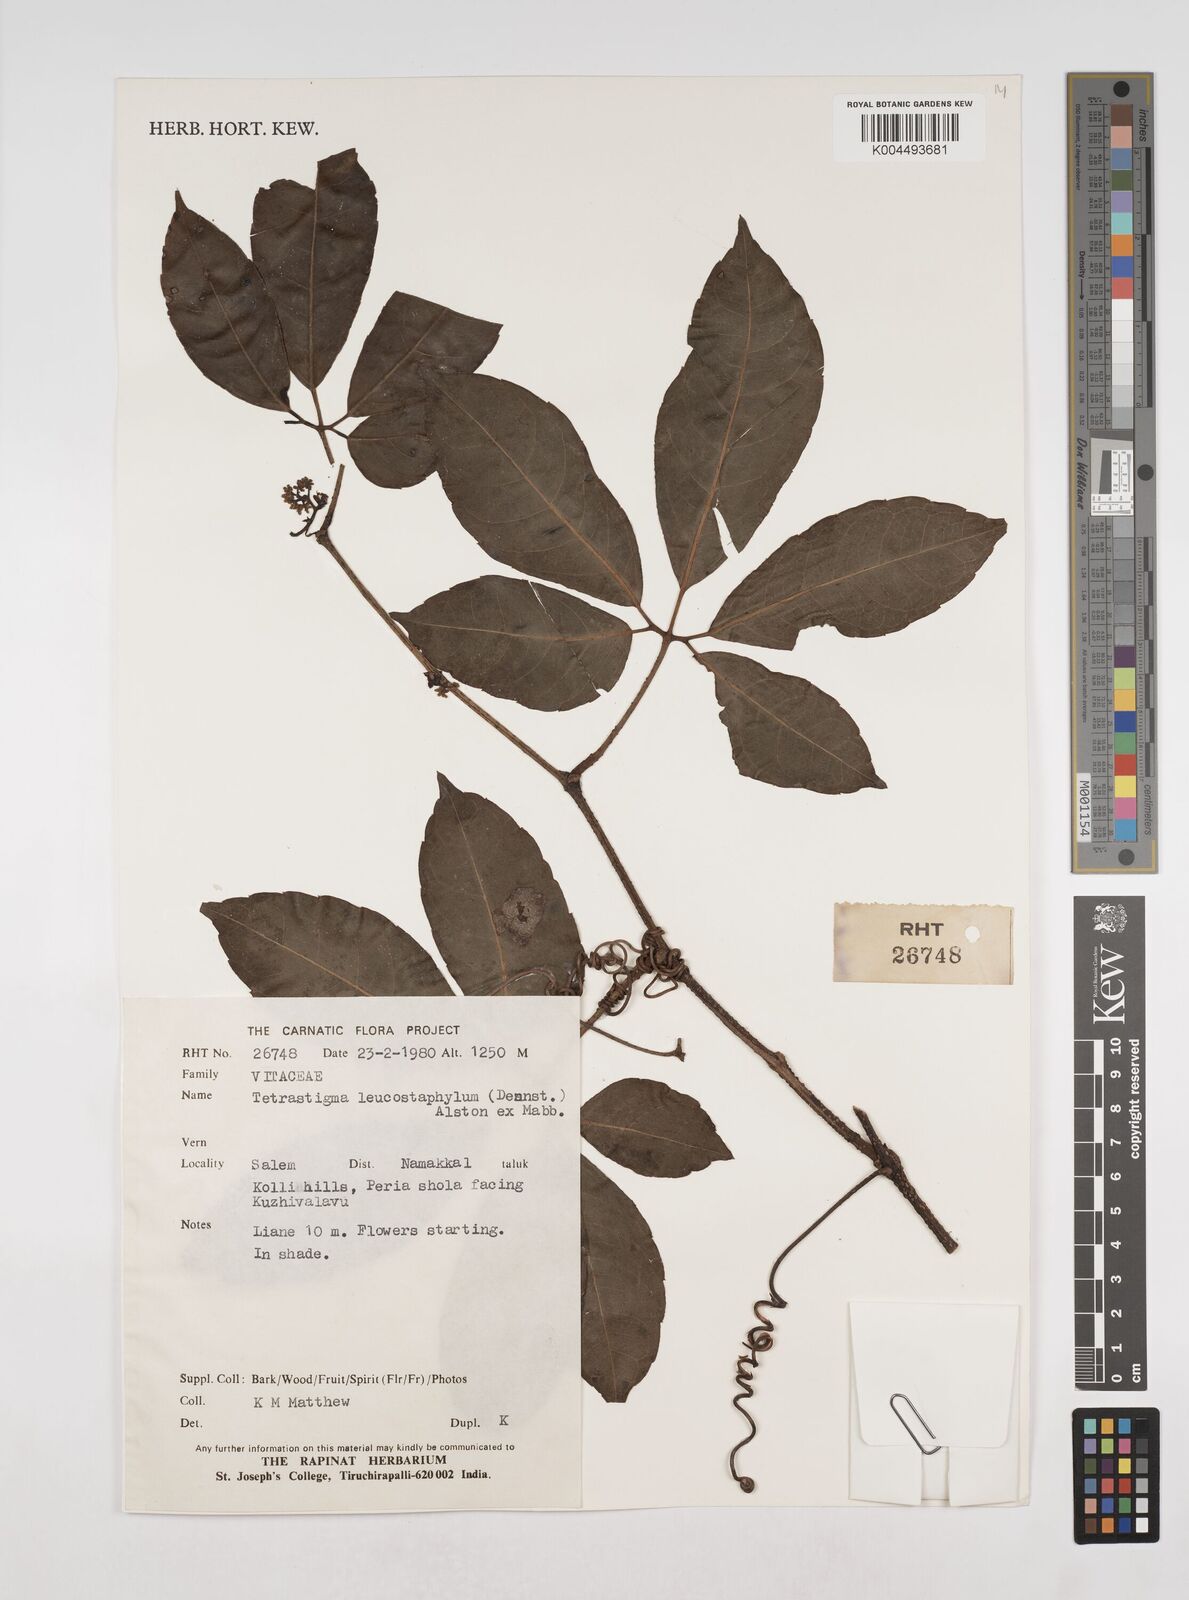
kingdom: Plantae
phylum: Tracheophyta
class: Magnoliopsida
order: Vitales
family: Vitaceae
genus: Tetrastigma
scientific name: Tetrastigma
